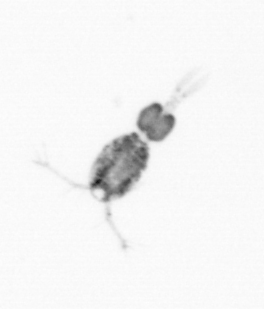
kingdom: Animalia
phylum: Arthropoda
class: Copepoda
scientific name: Copepoda
